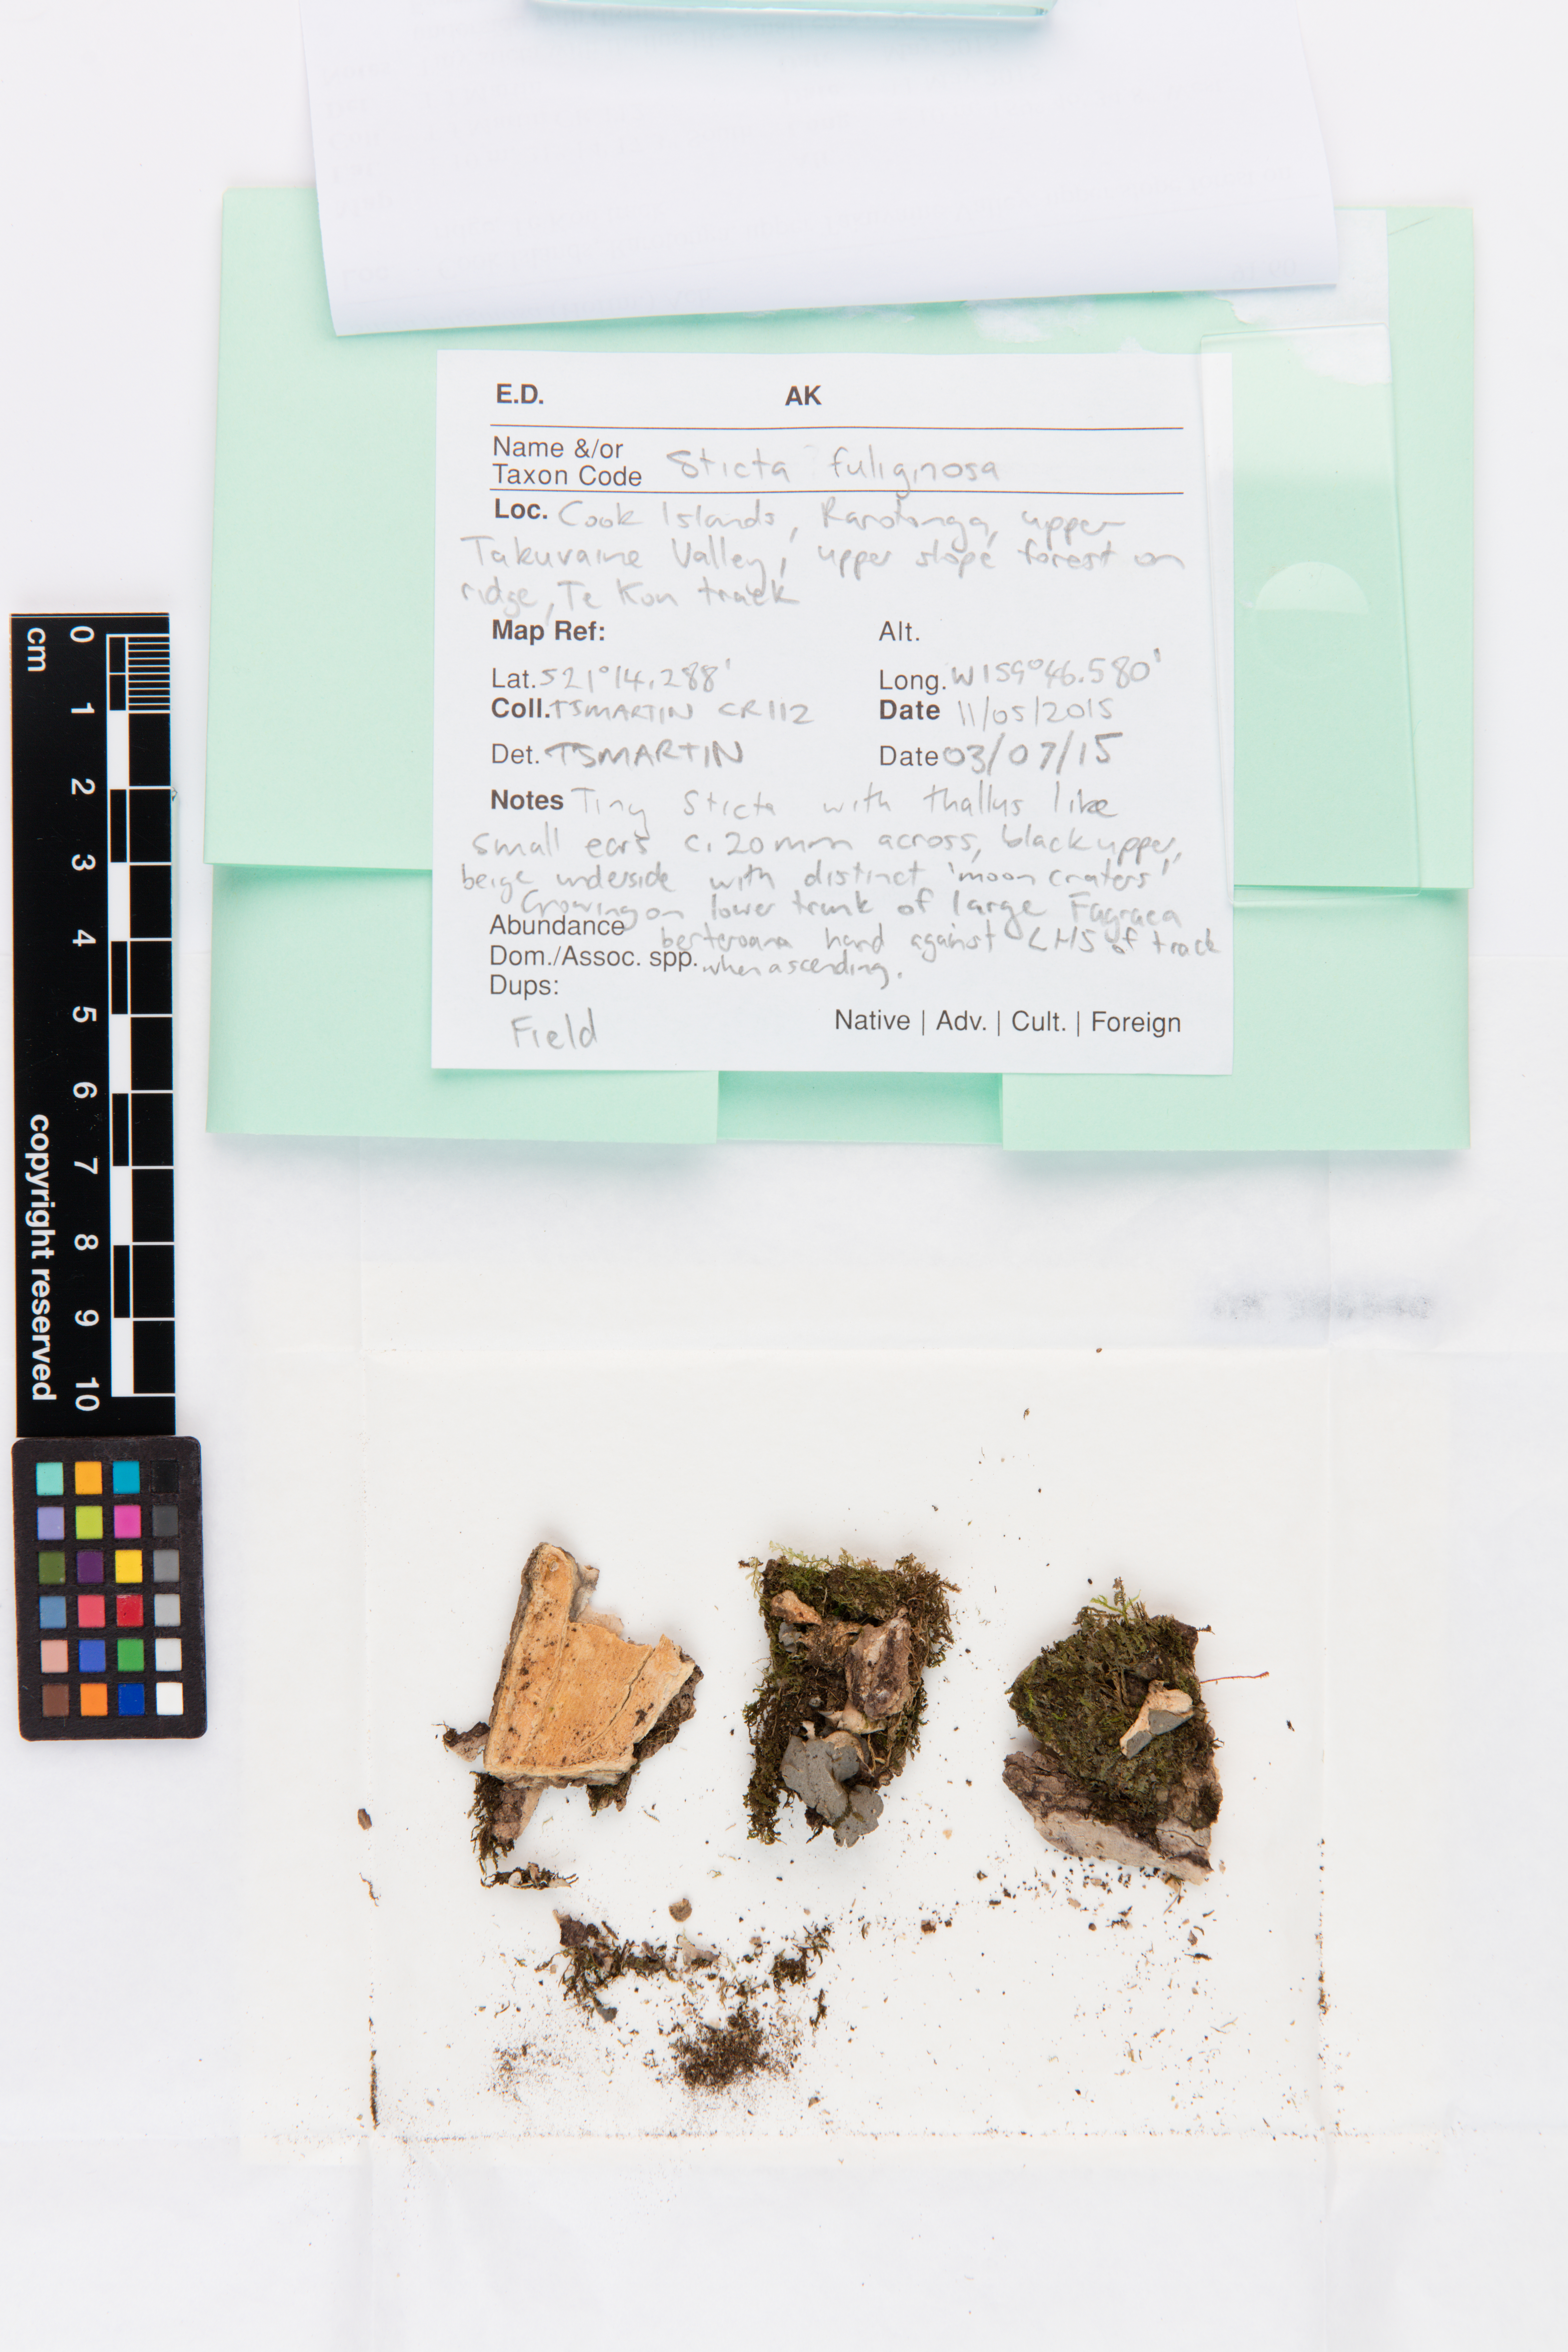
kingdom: Fungi
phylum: Ascomycota
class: Lecanoromycetes
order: Peltigerales
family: Lobariaceae
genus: Sticta
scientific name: Sticta fuliginosa
